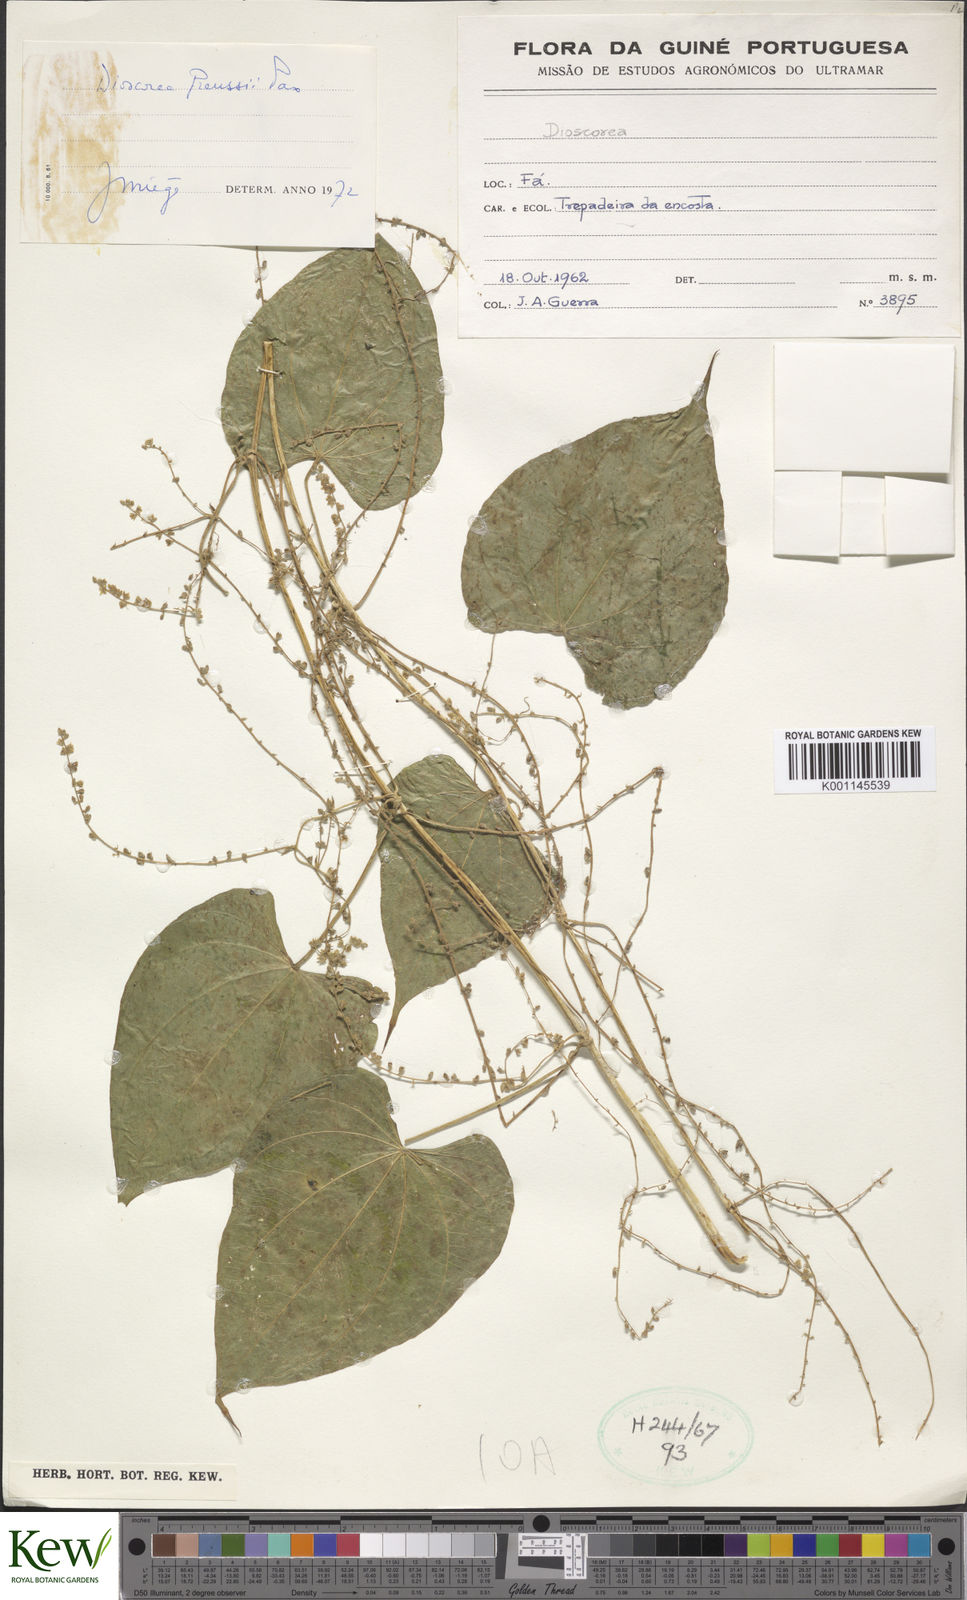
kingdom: Plantae
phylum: Tracheophyta
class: Liliopsida
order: Dioscoreales
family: Dioscoreaceae
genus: Dioscorea
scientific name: Dioscorea preussii
